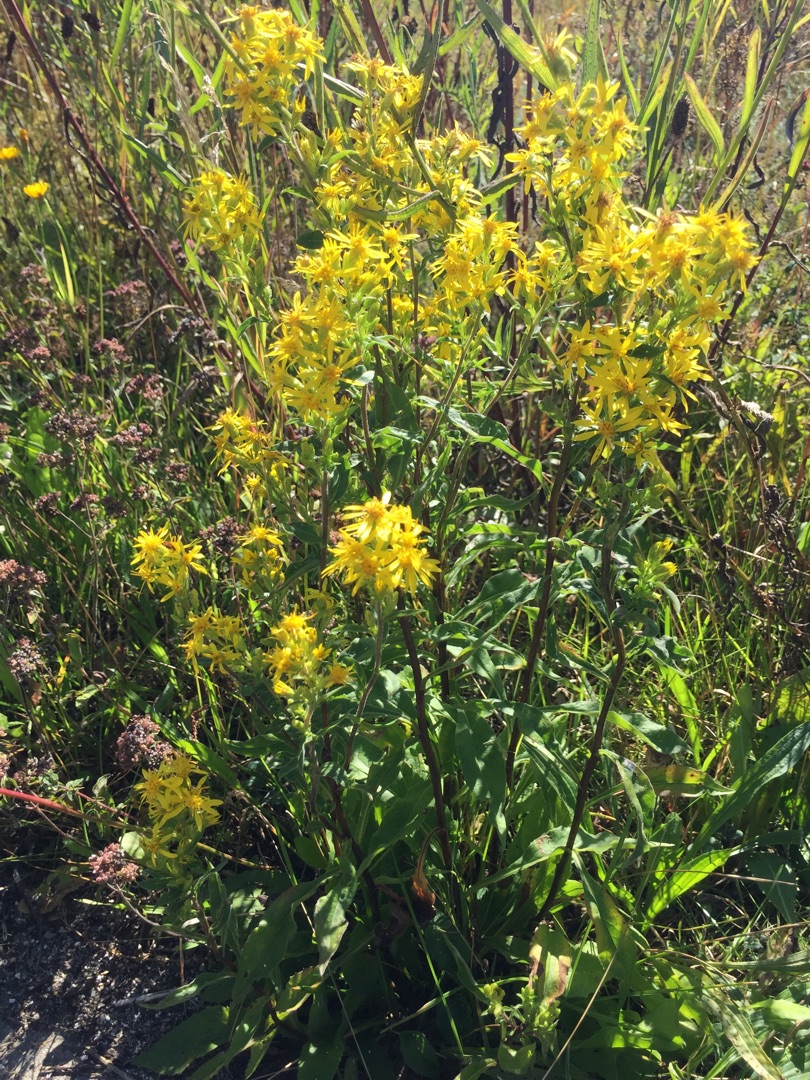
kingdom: Plantae
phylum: Tracheophyta
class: Magnoliopsida
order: Asterales
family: Asteraceae
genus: Solidago
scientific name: Solidago virgaurea
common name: Almindelig gyldenris
